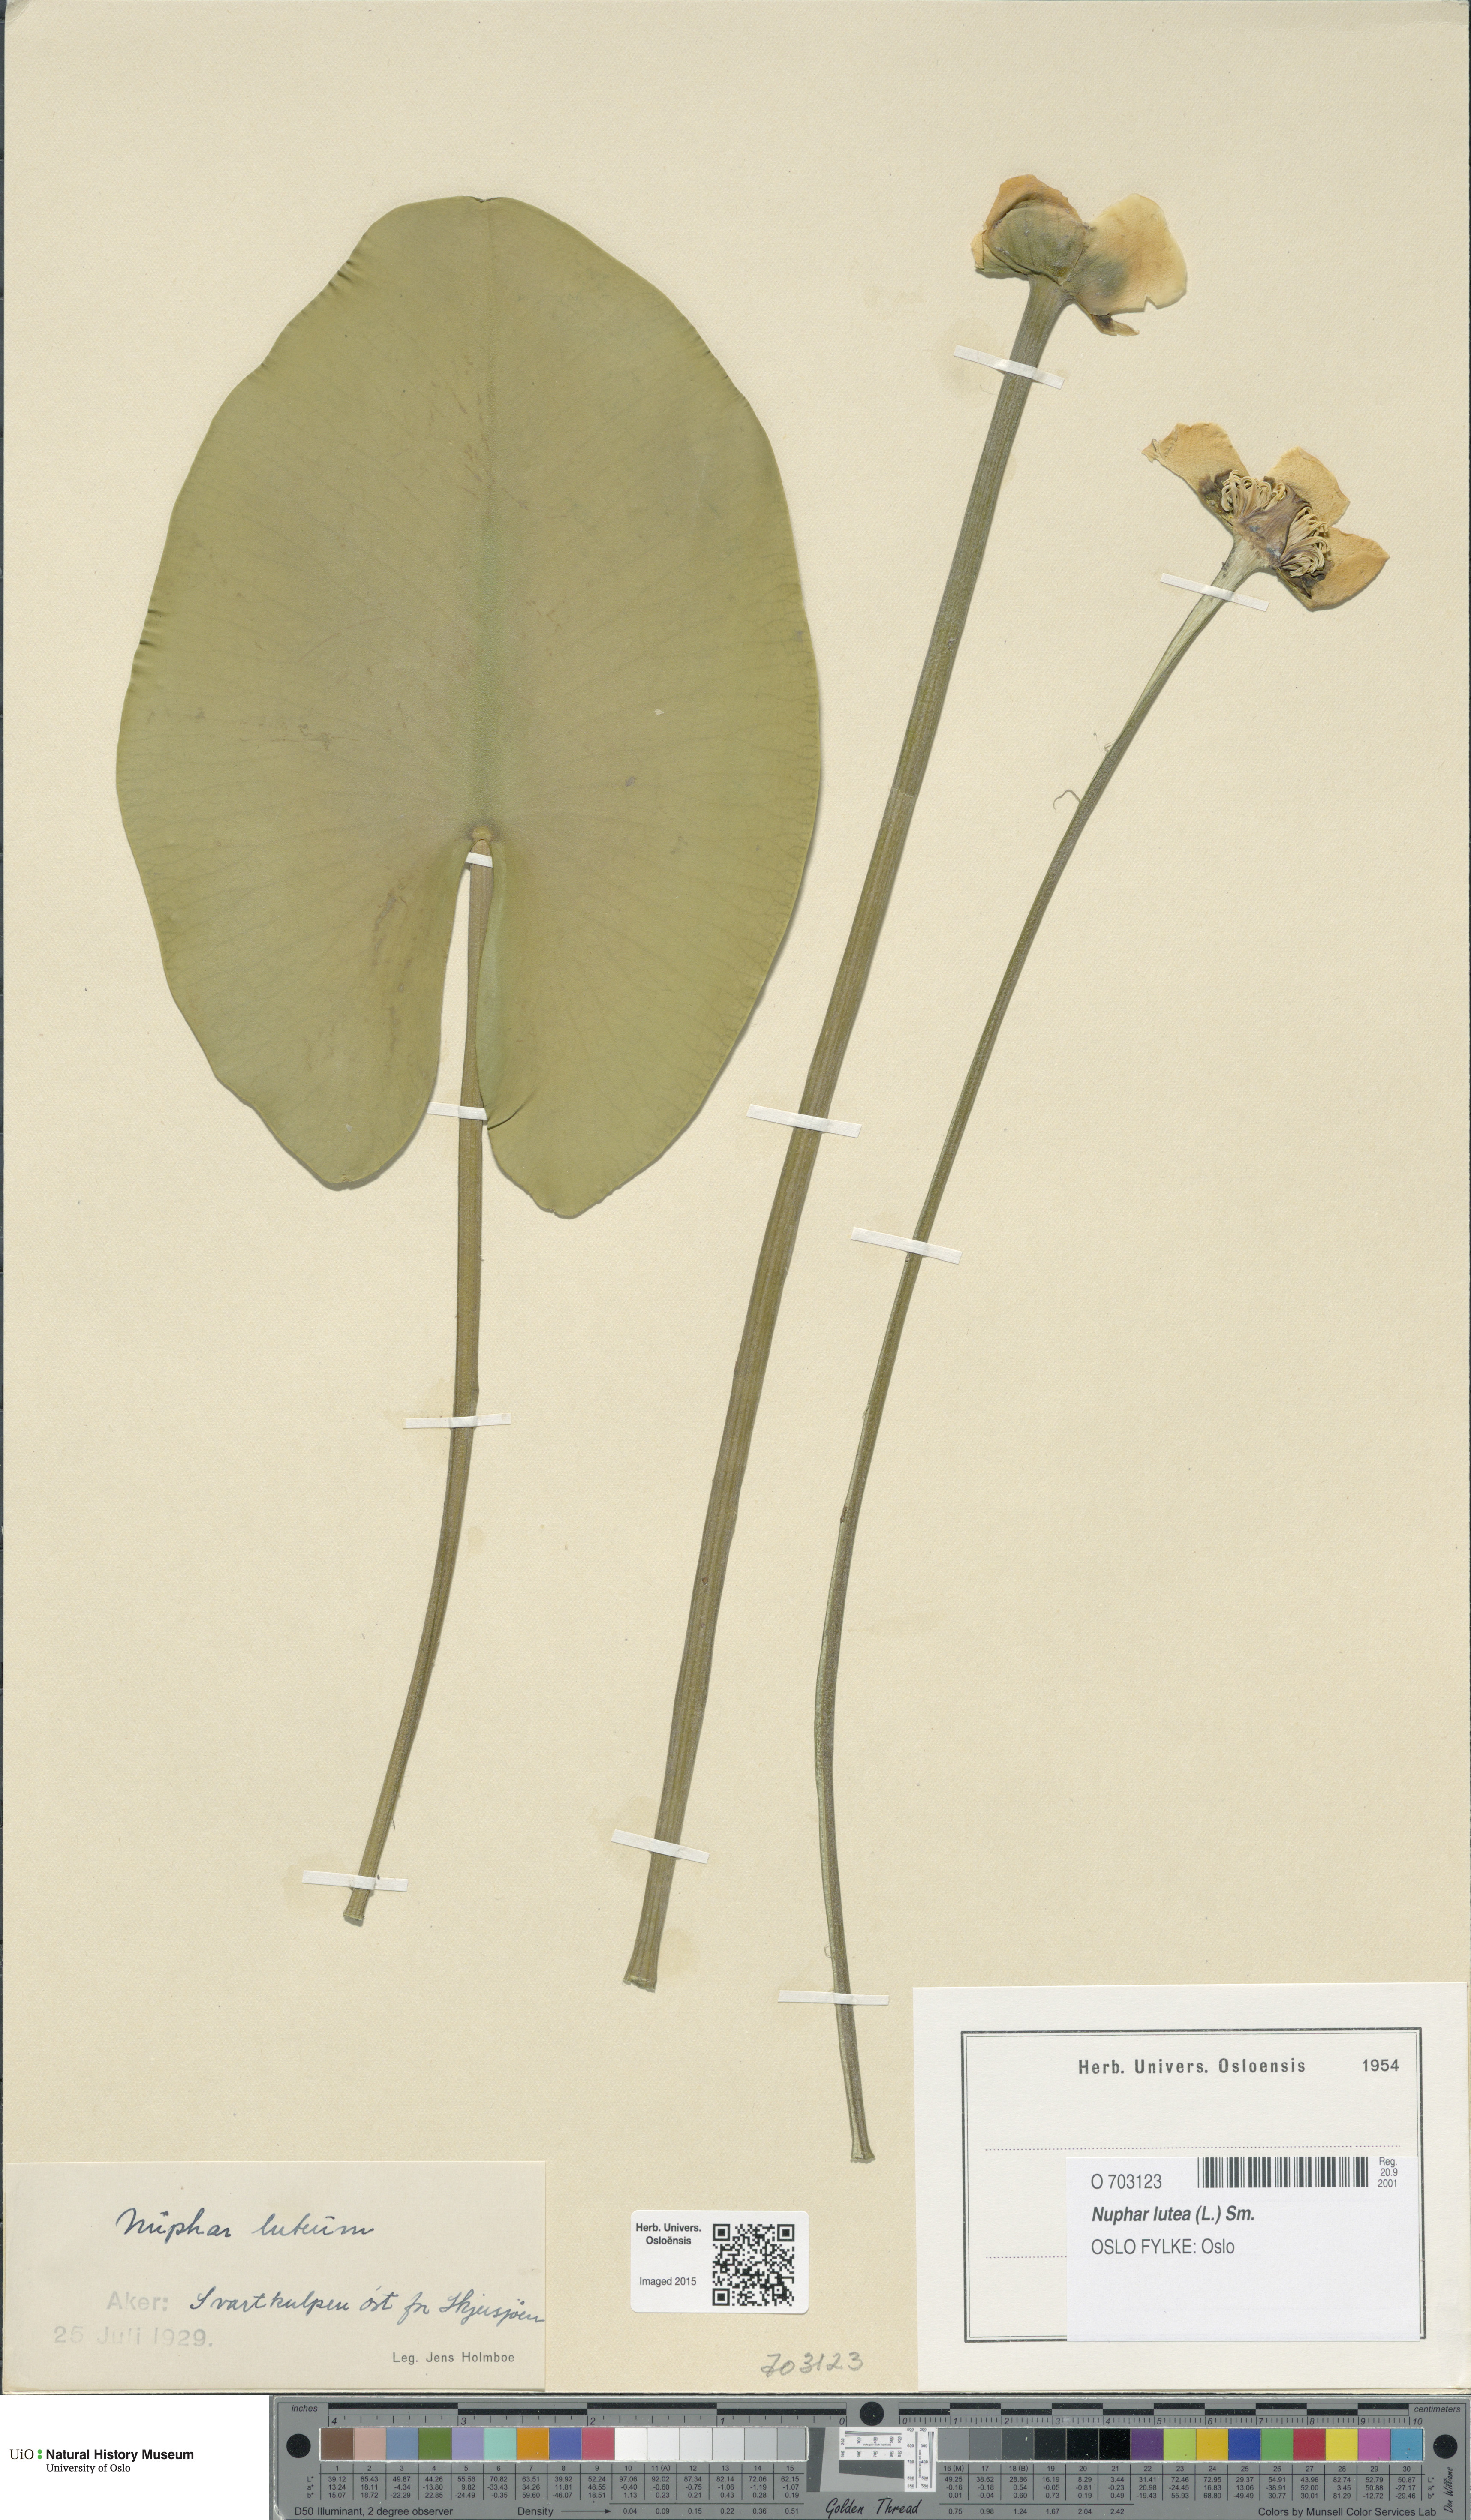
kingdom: Plantae
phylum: Tracheophyta
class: Magnoliopsida
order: Nymphaeales
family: Nymphaeaceae
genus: Nuphar
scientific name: Nuphar lutea
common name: Yellow water-lily
